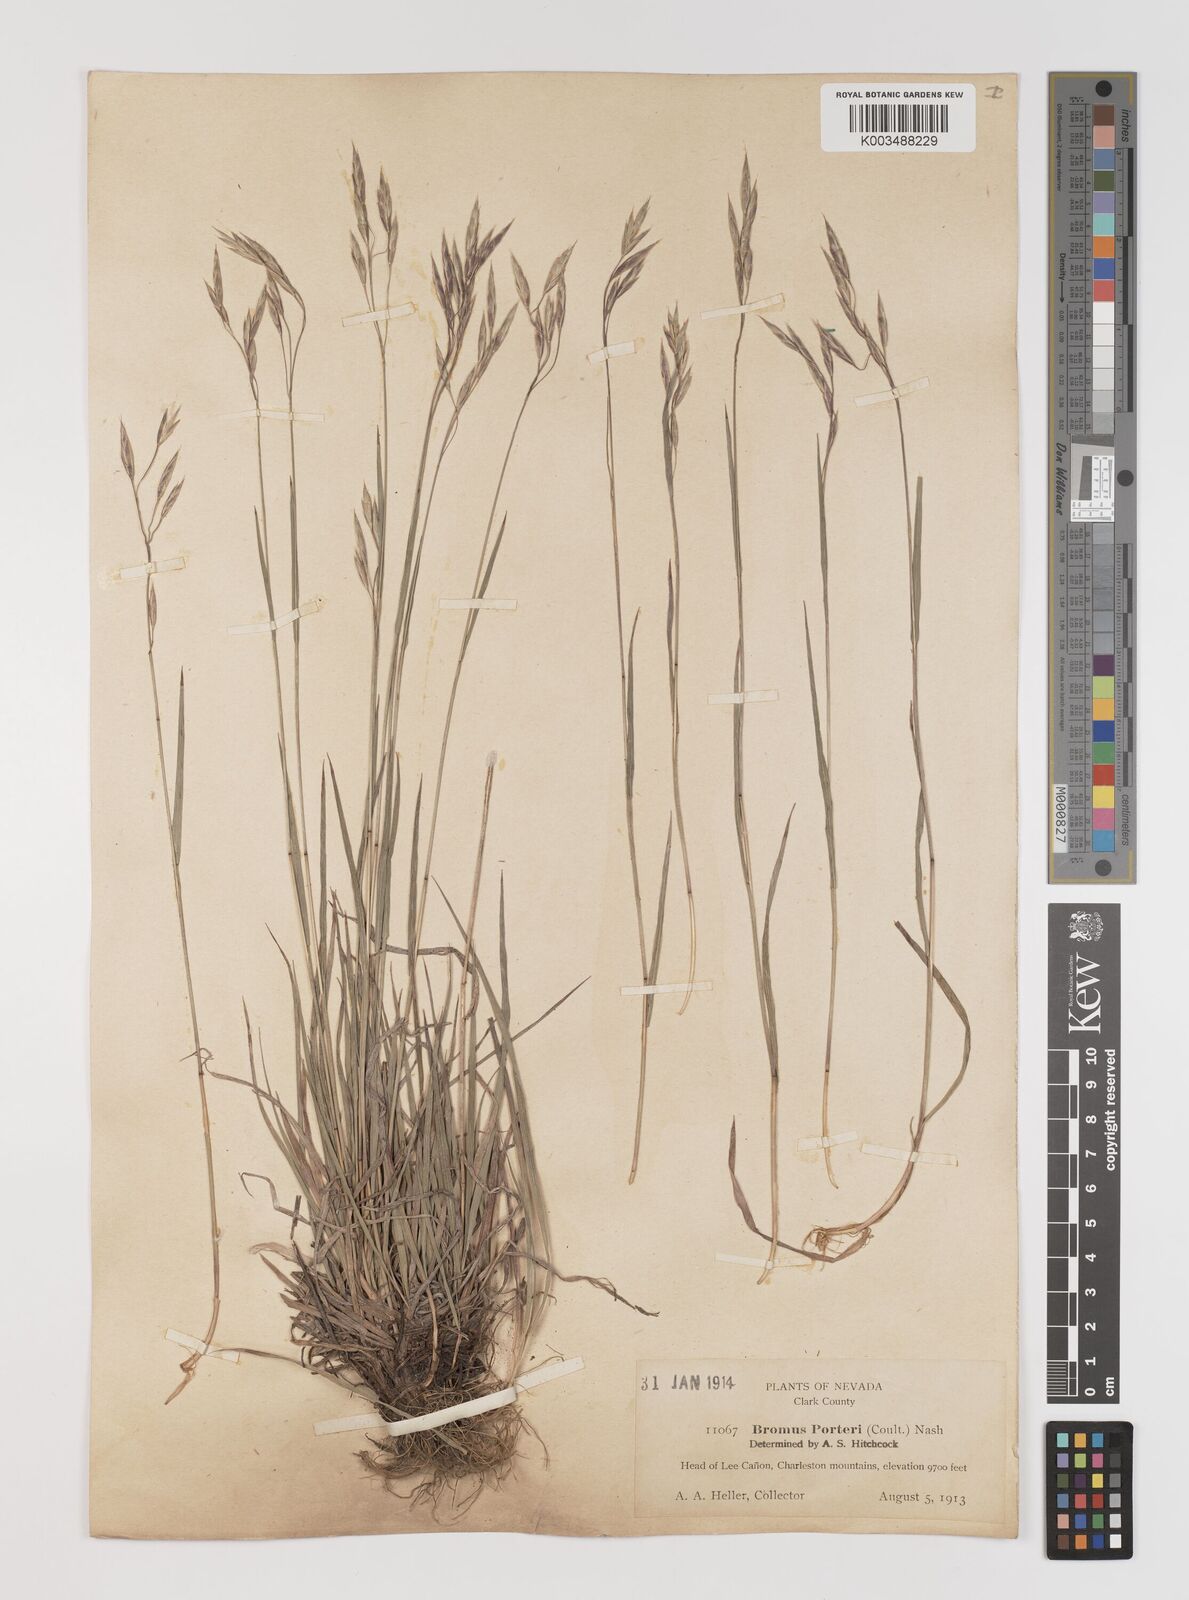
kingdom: Plantae
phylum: Tracheophyta
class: Liliopsida
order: Poales
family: Poaceae
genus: Bromus
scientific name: Bromus porteri
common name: Nodding brome
